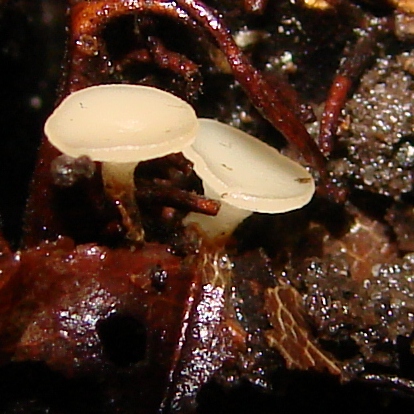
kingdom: Fungi
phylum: Ascomycota
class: Leotiomycetes
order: Helotiales
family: Helotiaceae
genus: Hymenoscyphus
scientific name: Hymenoscyphus fagineus
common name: vellugtende stilkskive
